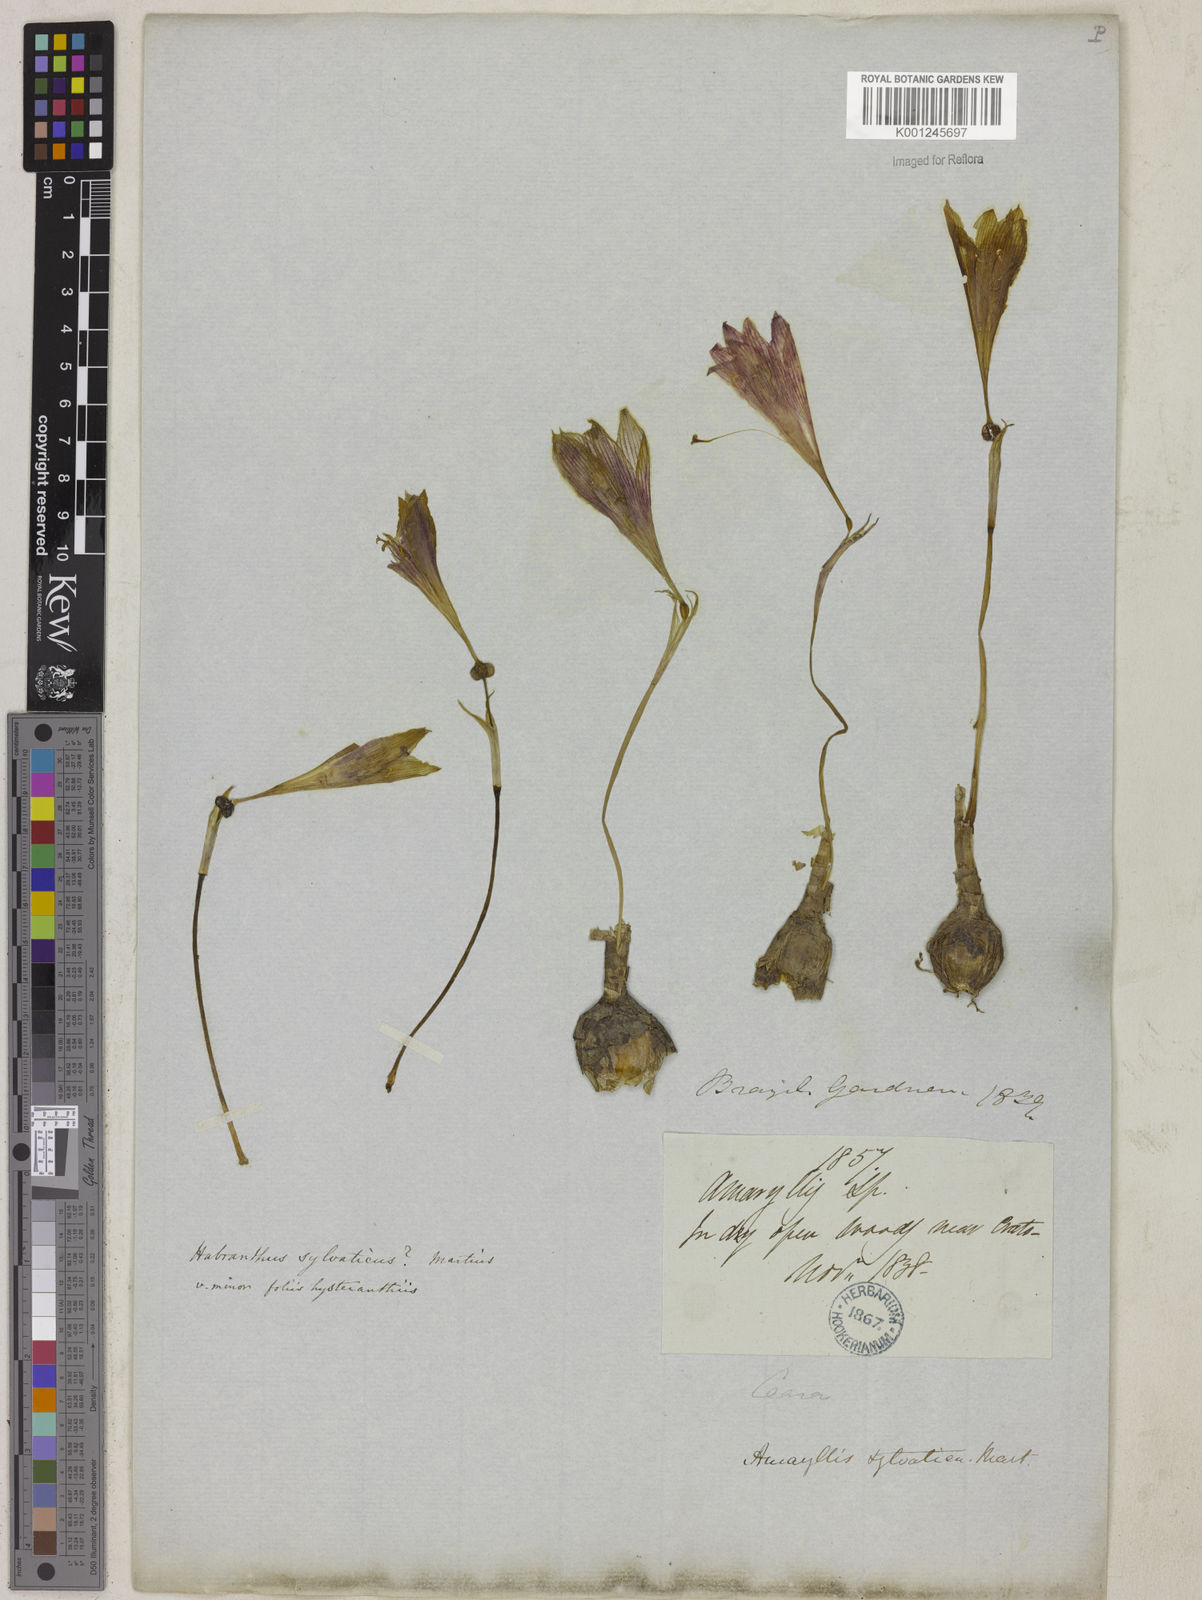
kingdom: Plantae
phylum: Tracheophyta
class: Liliopsida
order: Asparagales
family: Amaryllidaceae
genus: Zephyranthes
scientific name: Zephyranthes sylvatica
